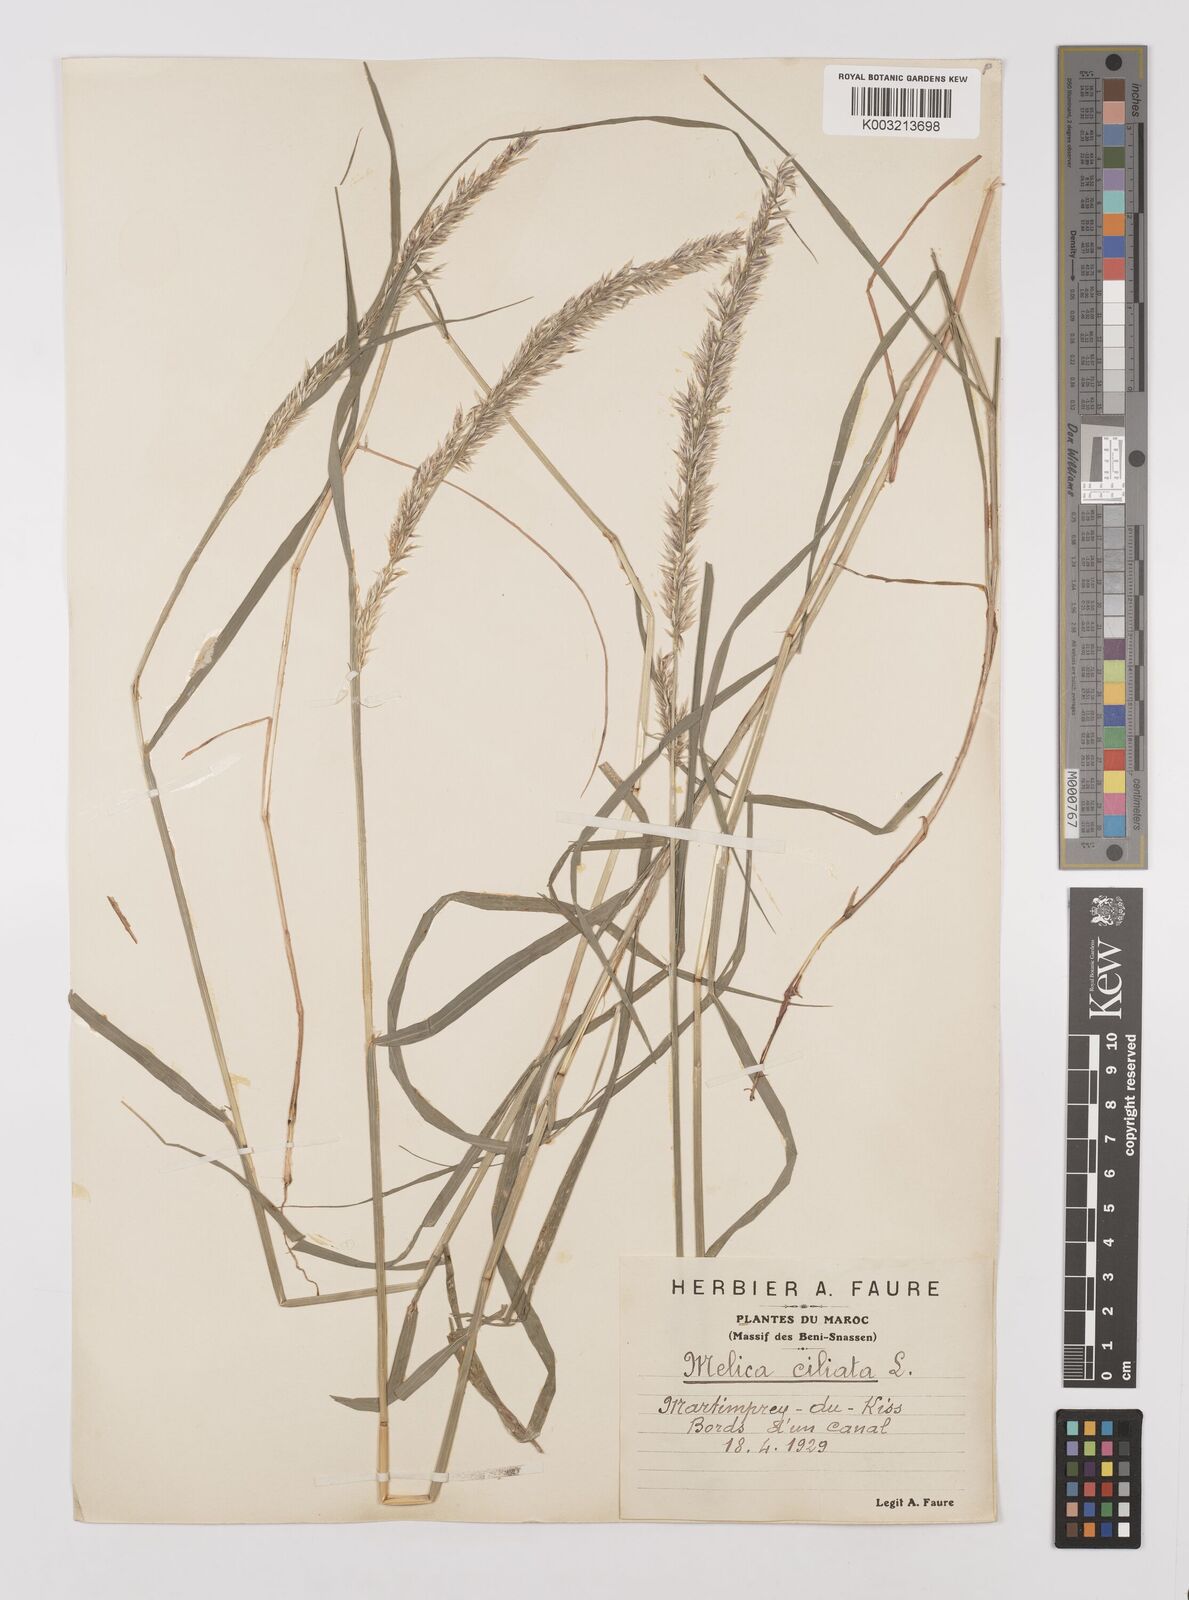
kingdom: Plantae
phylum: Tracheophyta
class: Liliopsida
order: Poales
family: Poaceae
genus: Melica
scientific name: Melica ciliata
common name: Hairy melicgrass
